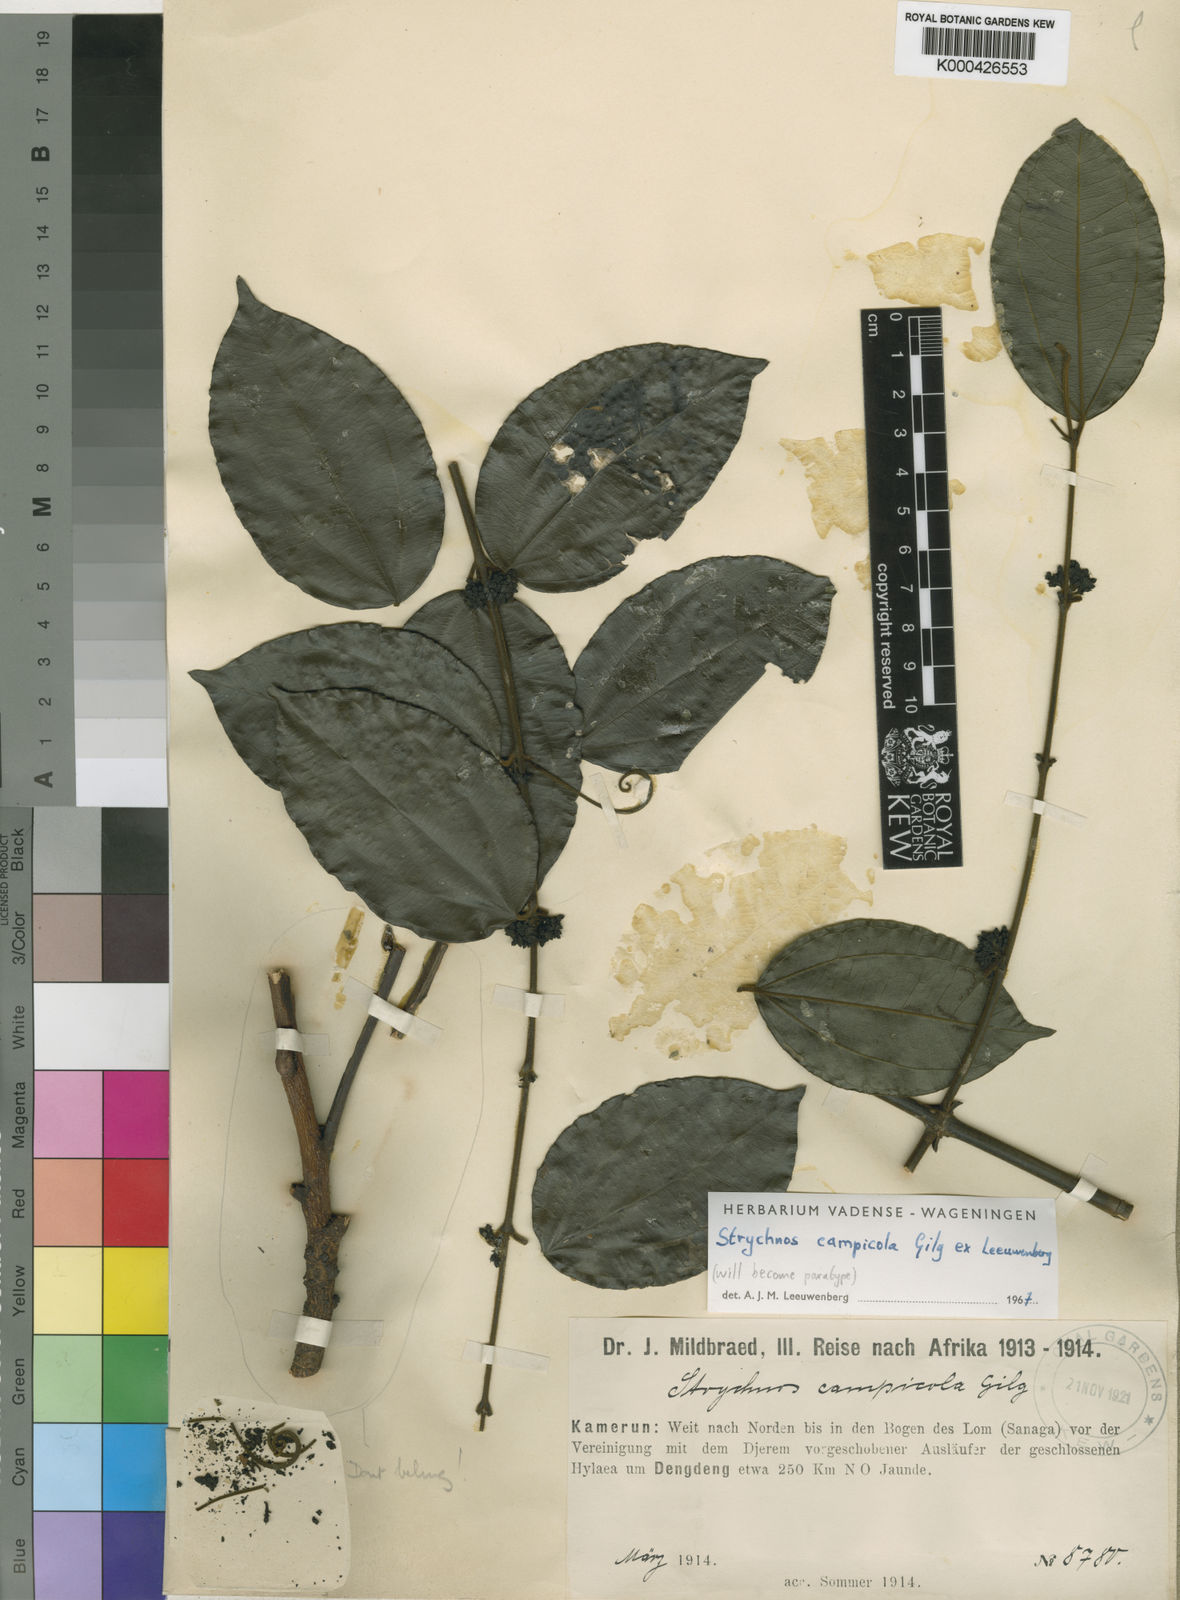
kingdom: Plantae
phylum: Tracheophyta
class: Magnoliopsida
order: Gentianales
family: Loganiaceae
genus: Strychnos
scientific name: Strychnos campicola
